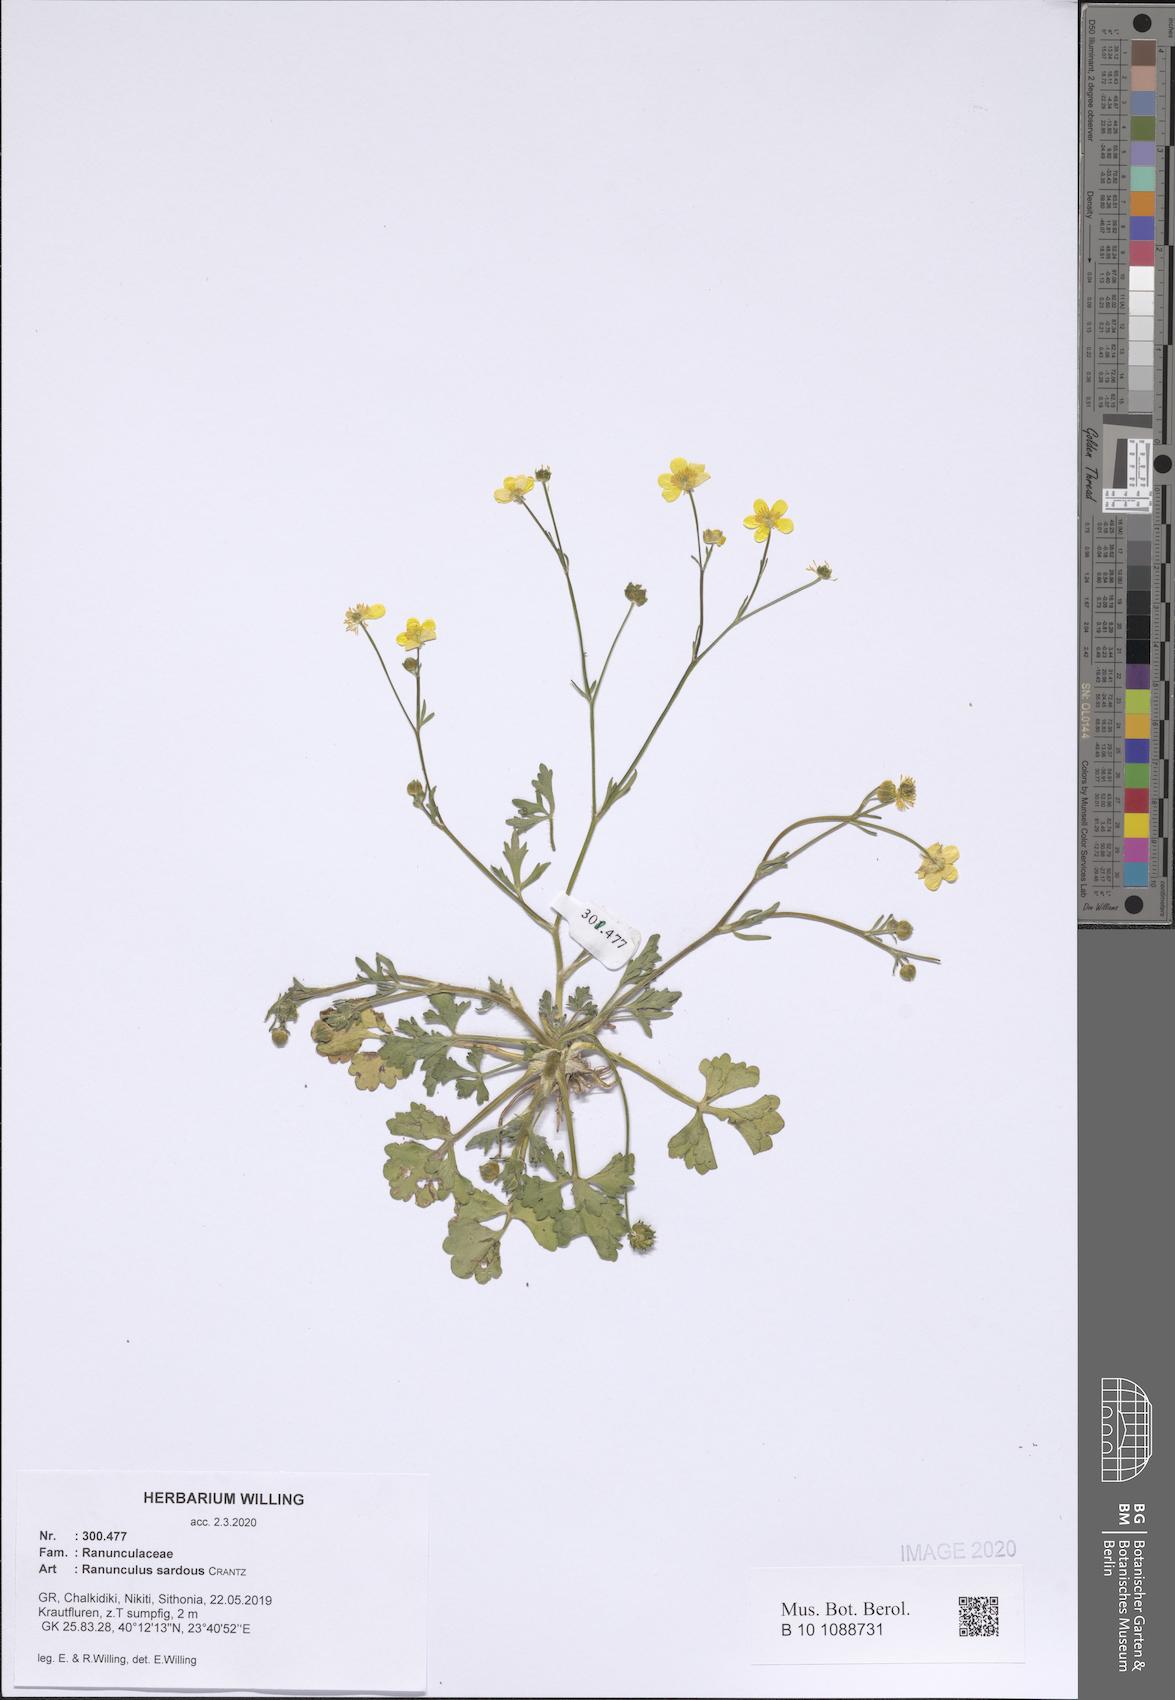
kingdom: Plantae
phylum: Tracheophyta
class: Magnoliopsida
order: Ranunculales
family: Ranunculaceae
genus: Ranunculus
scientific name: Ranunculus sardous
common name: Hairy buttercup
